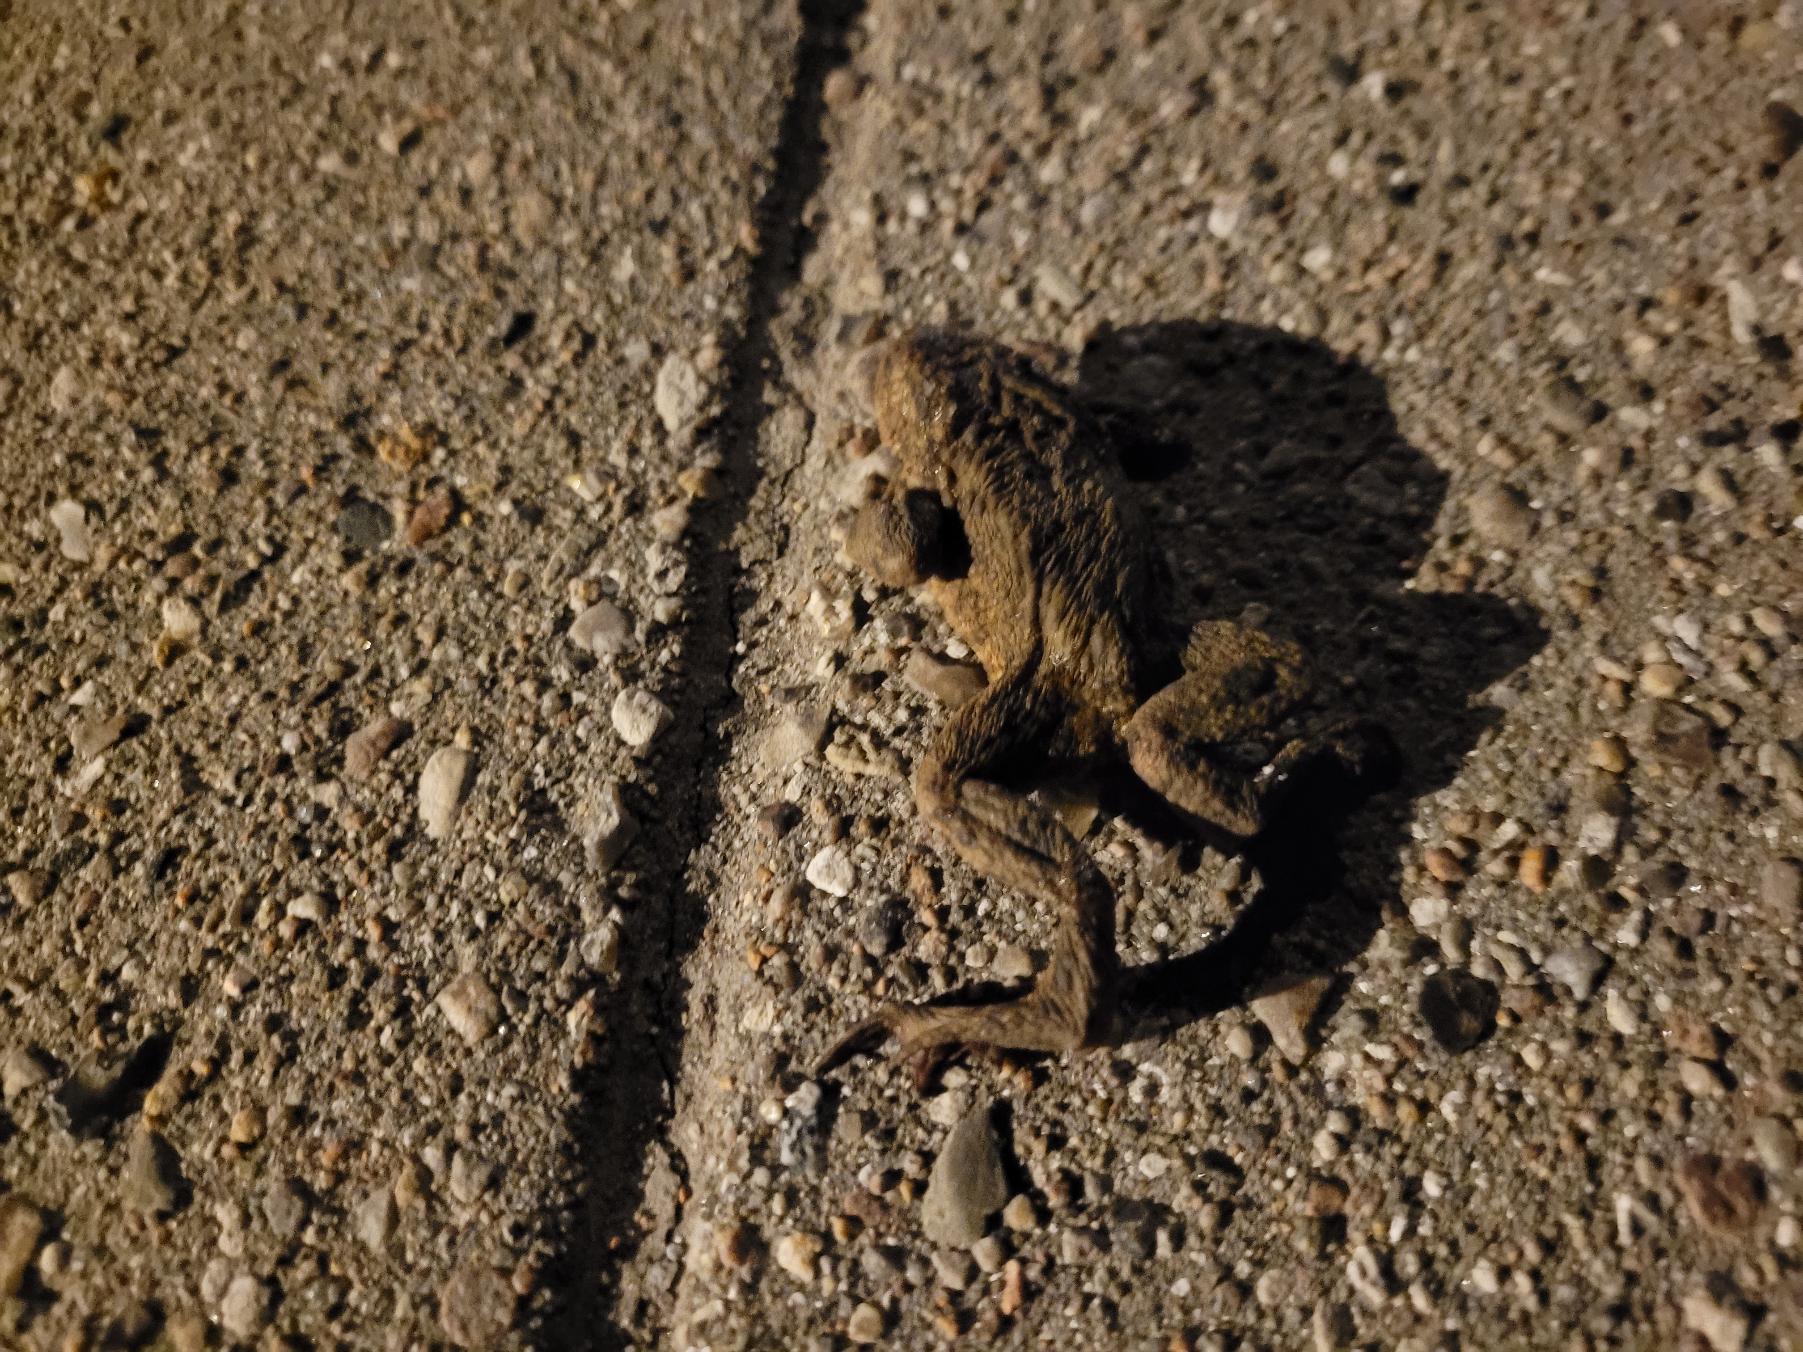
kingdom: Animalia
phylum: Chordata
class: Amphibia
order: Anura
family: Bufonidae
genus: Bufo
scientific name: Bufo bufo
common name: Skrubtudse
